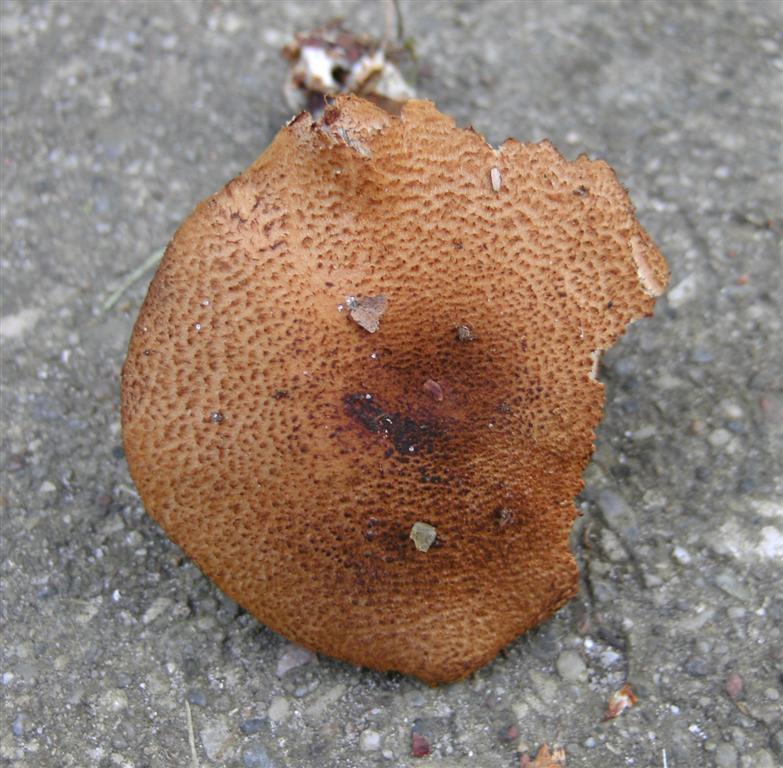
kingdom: Fungi
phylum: Basidiomycota
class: Agaricomycetes
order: Agaricales
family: Cortinariaceae
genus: Cortinarius
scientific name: Cortinarius pholideus
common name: brunskællet slørhat
